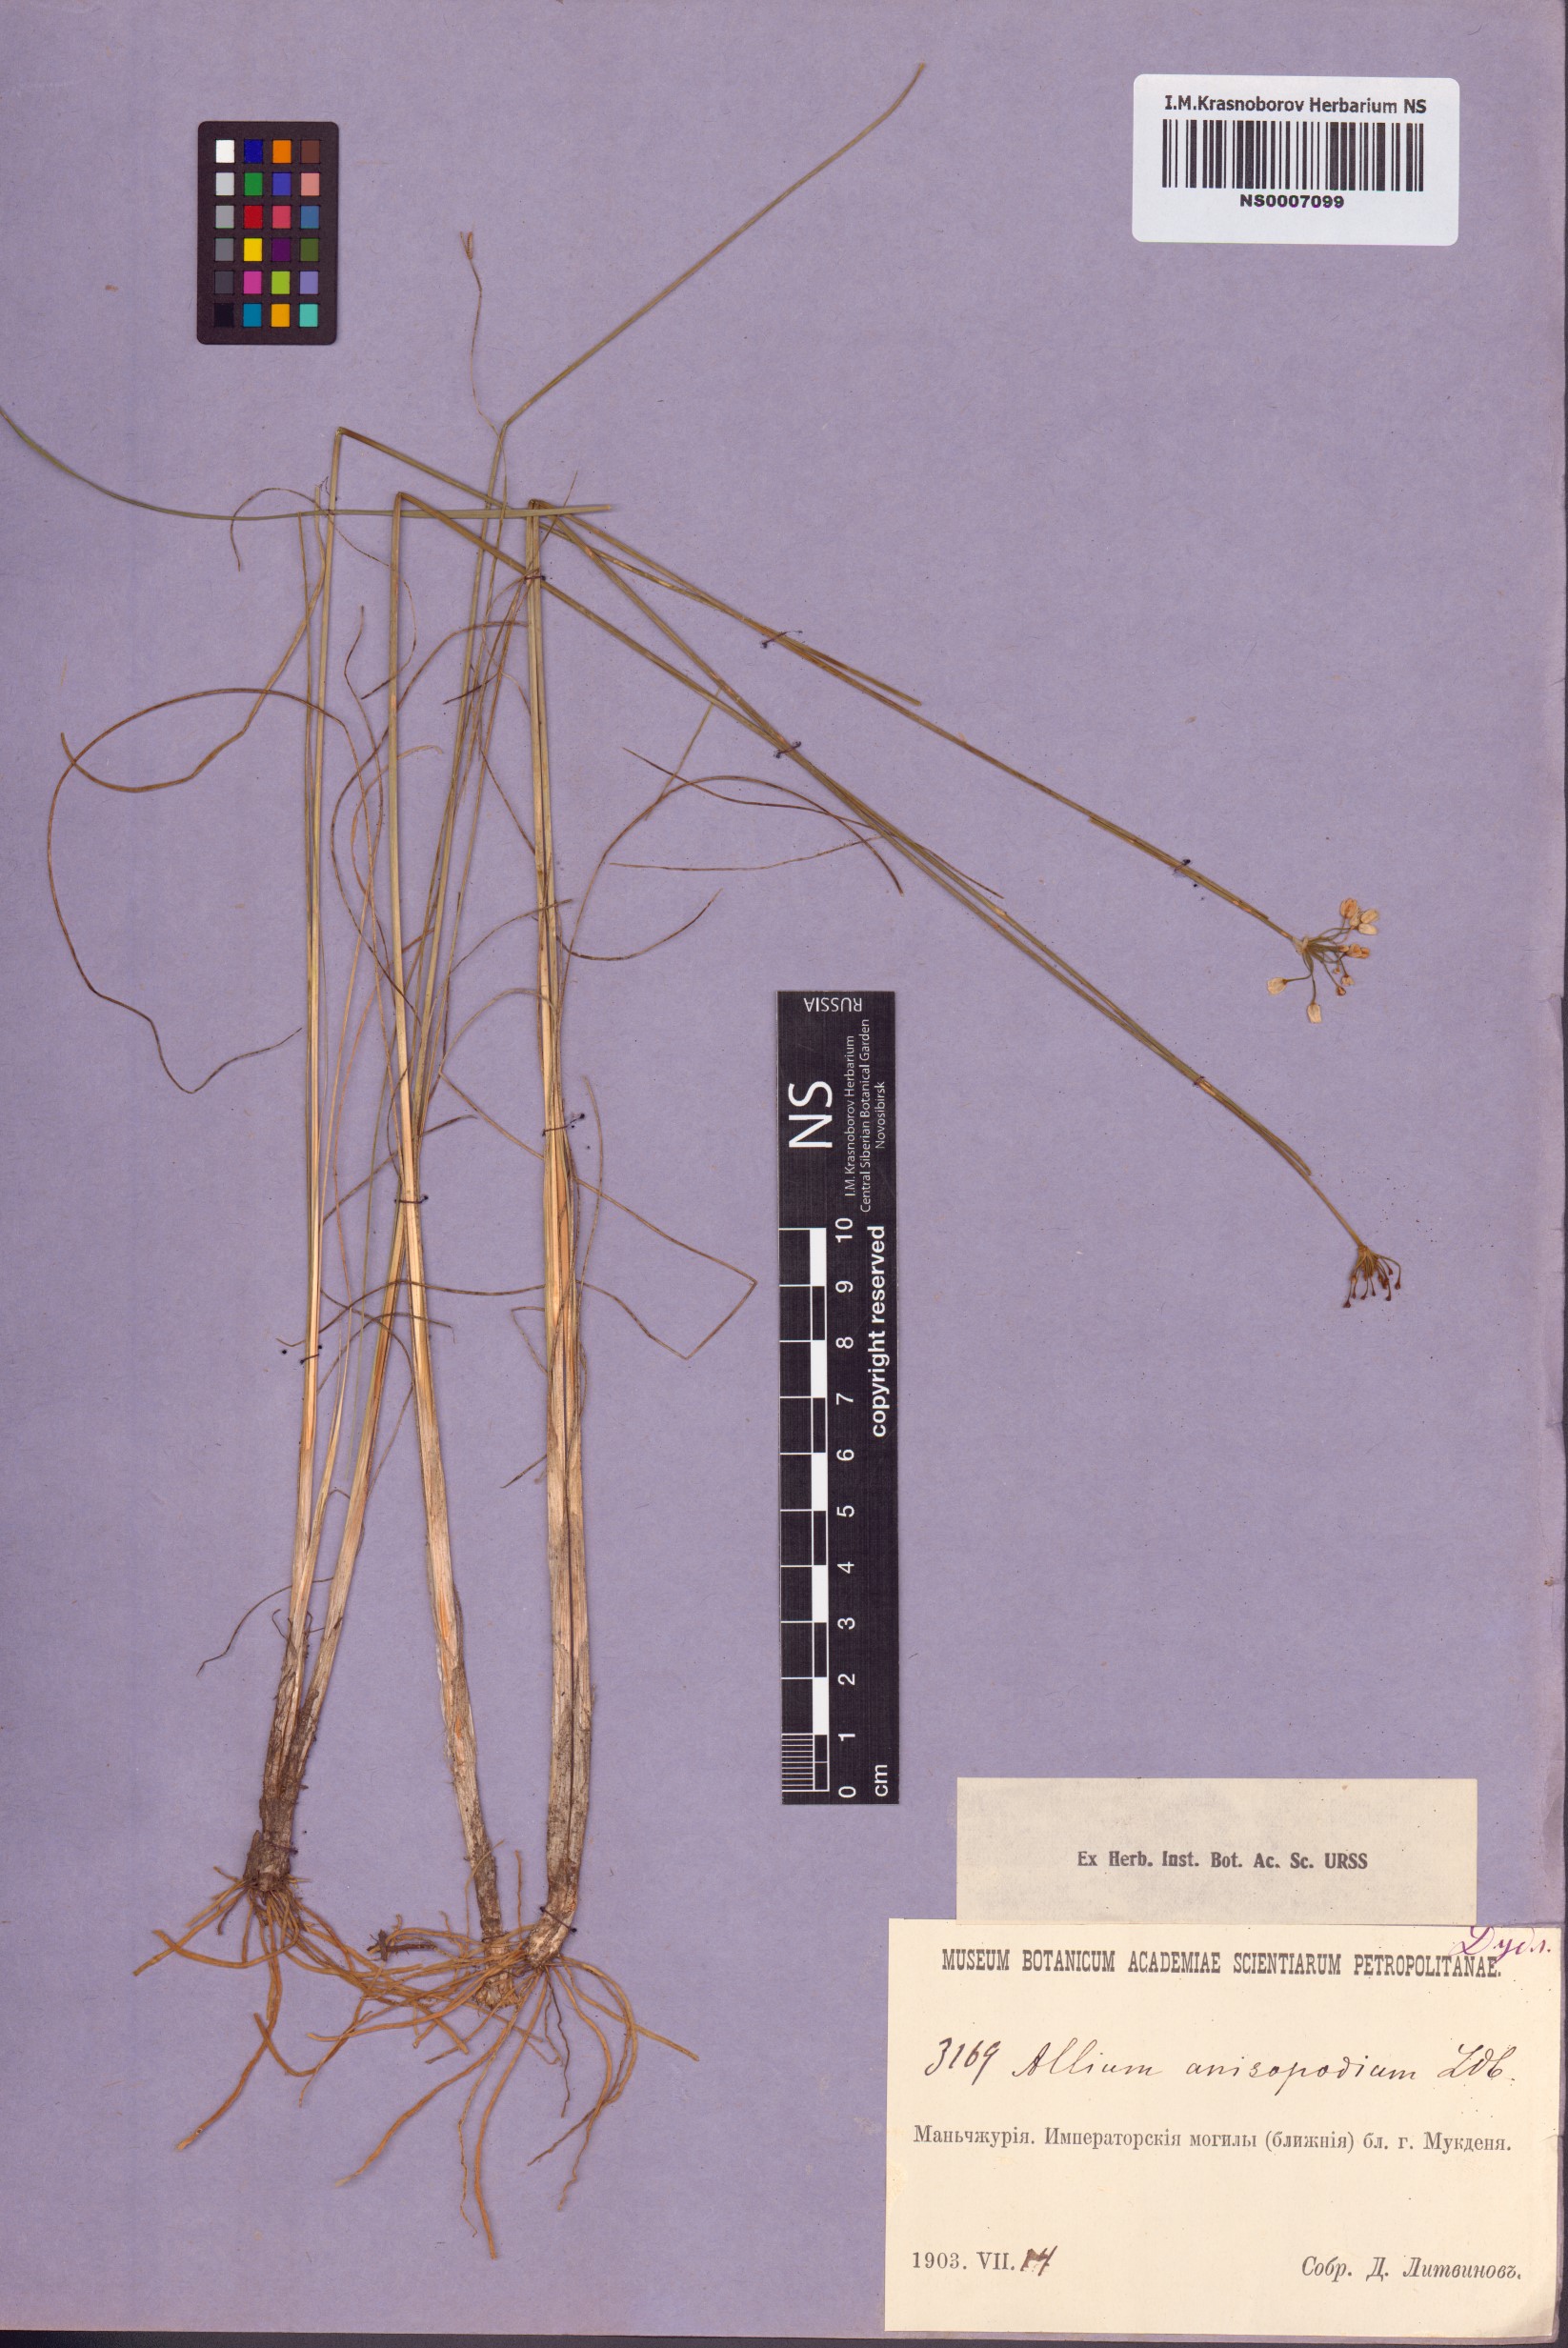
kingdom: Plantae
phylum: Tracheophyta
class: Liliopsida
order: Asparagales
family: Amaryllidaceae
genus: Allium
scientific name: Allium tenuissimum
